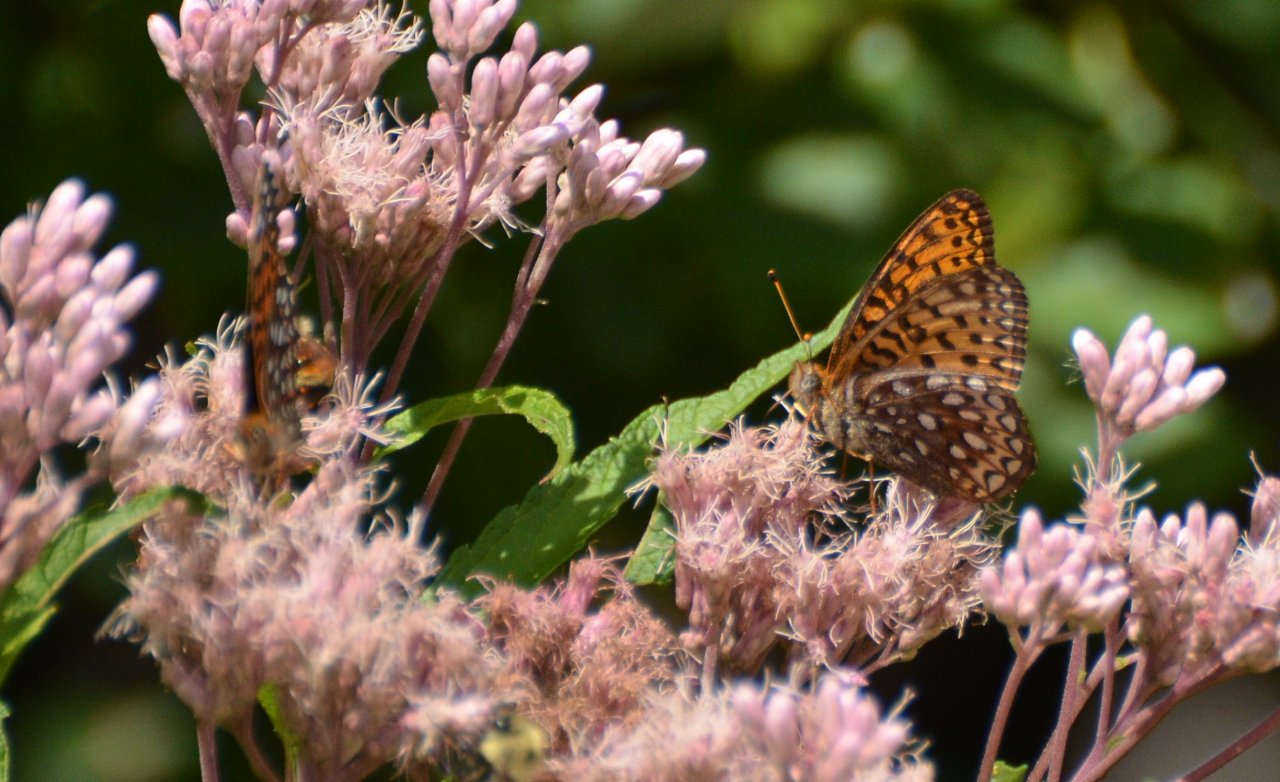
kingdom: Animalia
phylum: Arthropoda
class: Insecta
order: Lepidoptera
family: Nymphalidae
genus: Speyeria
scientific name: Speyeria atlantis
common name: Atlantis Fritillary
